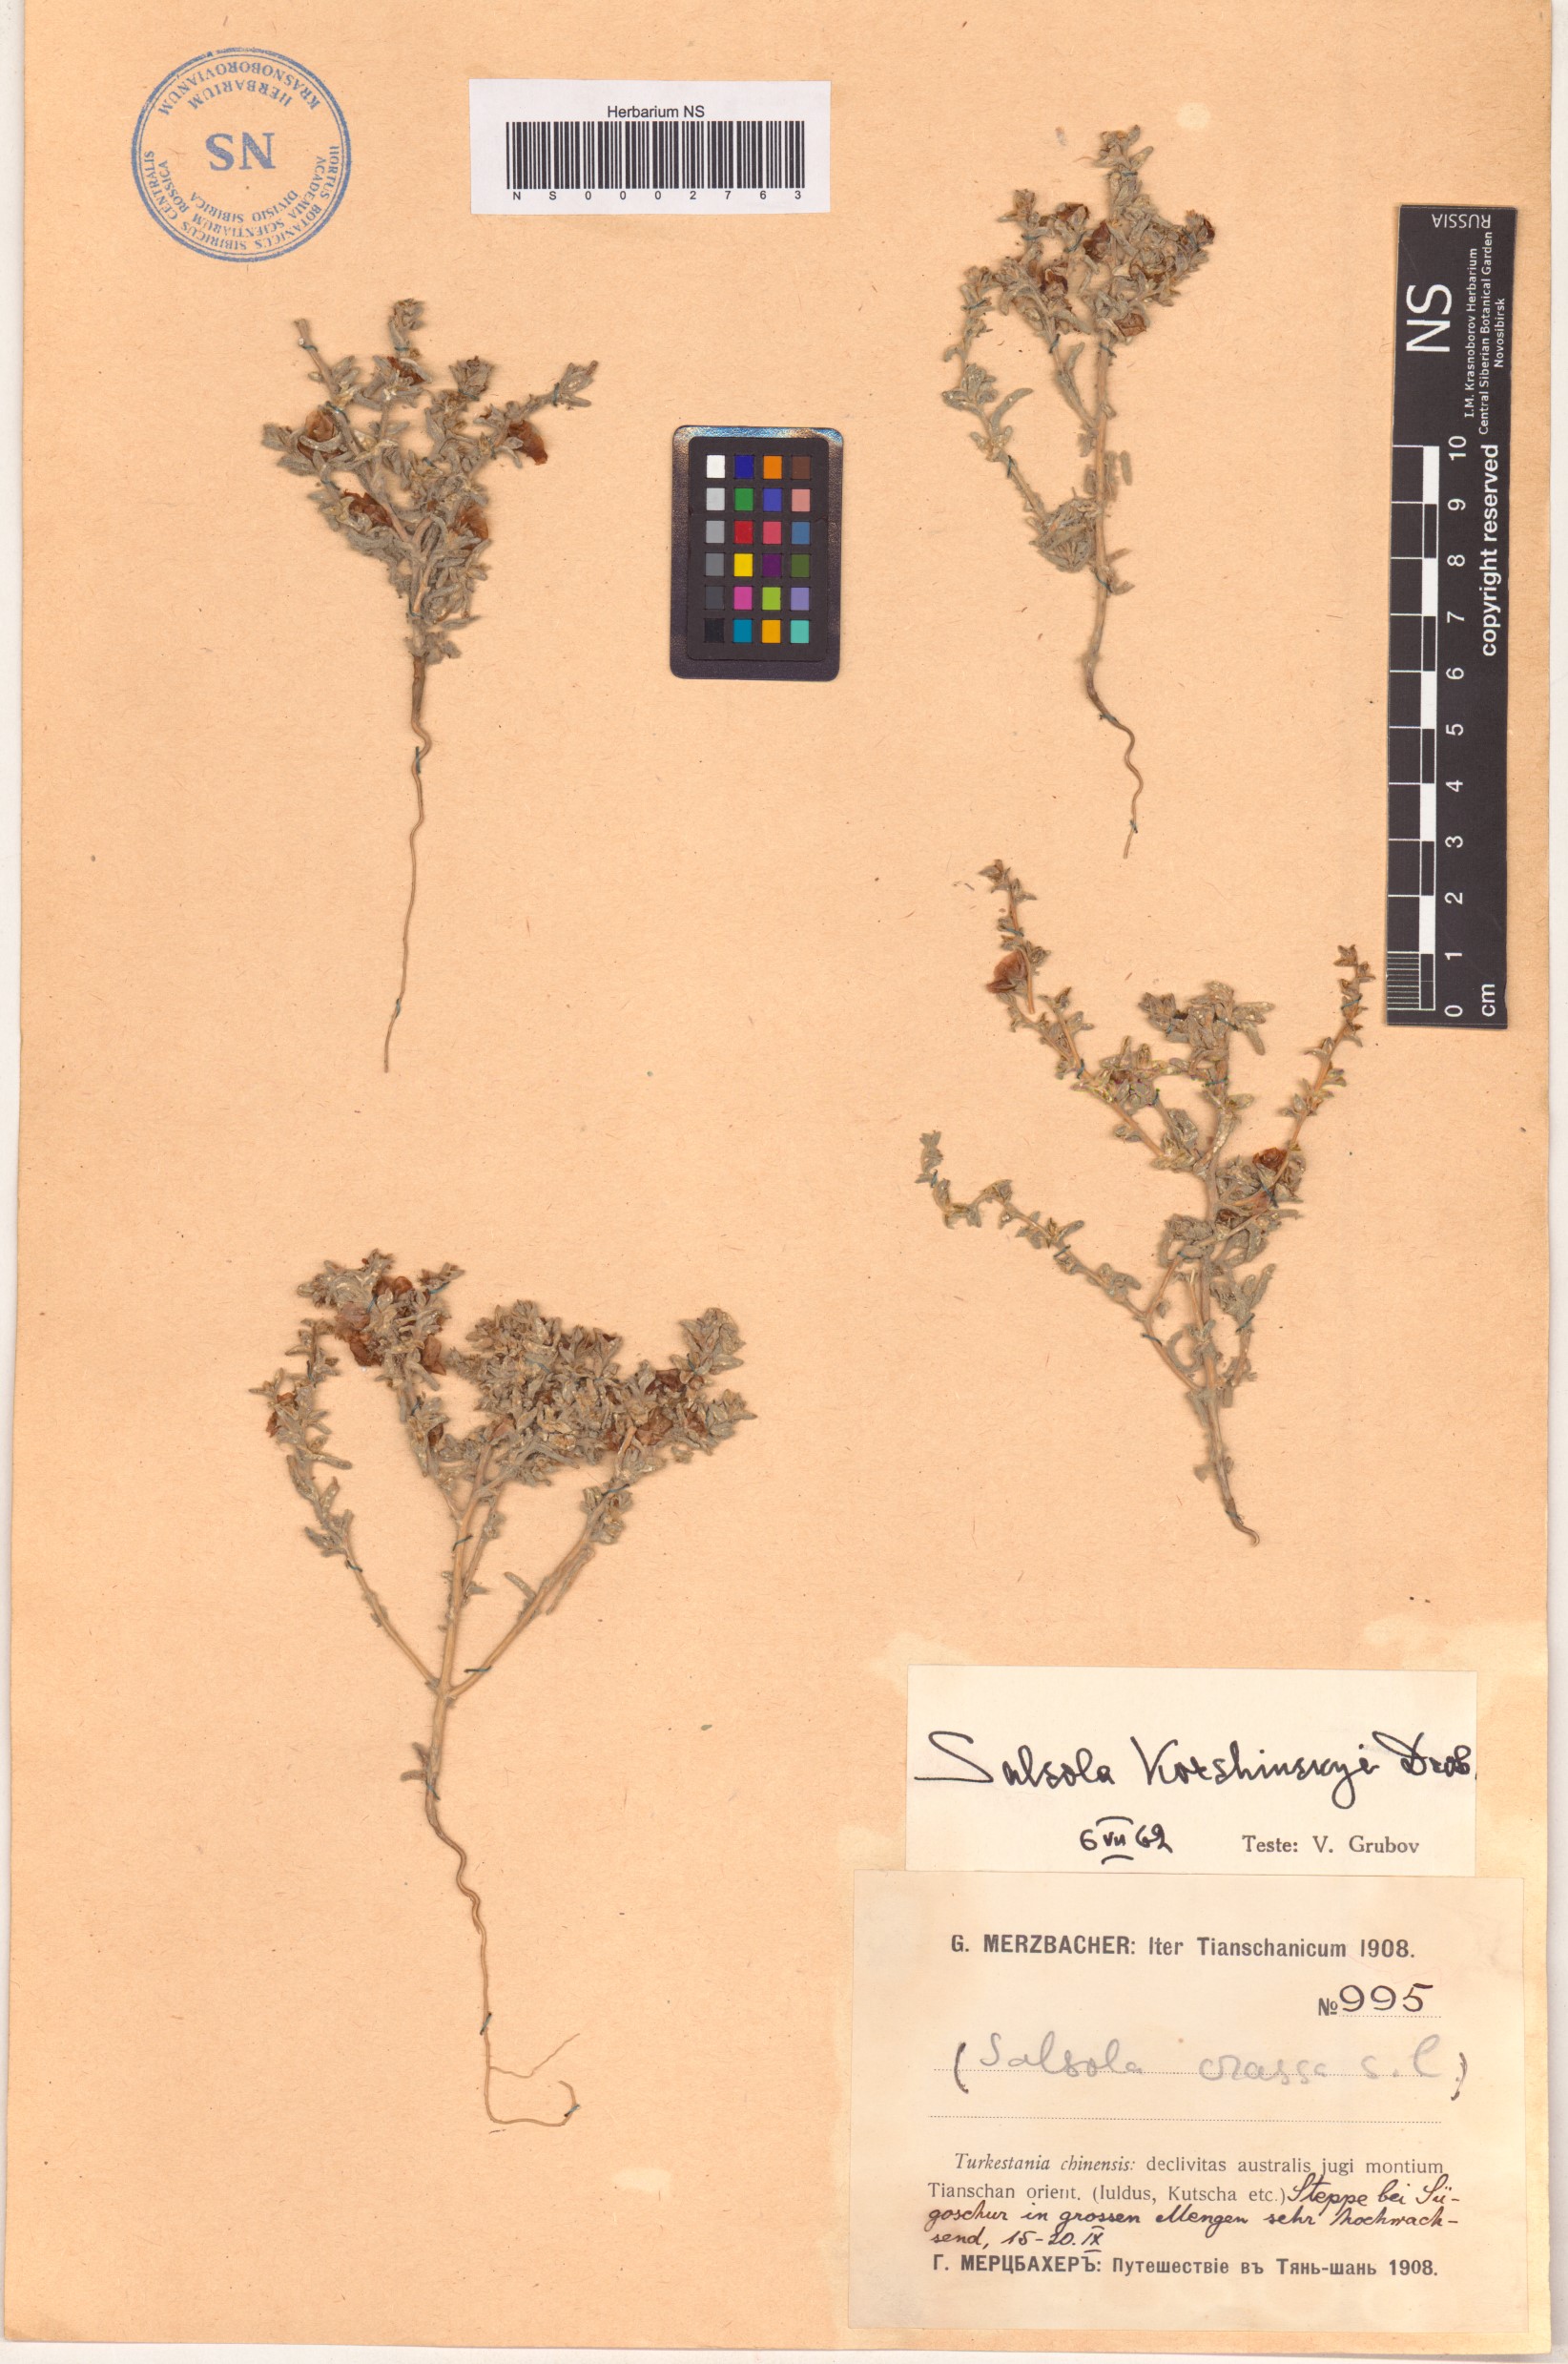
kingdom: Plantae
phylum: Tracheophyta
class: Magnoliopsida
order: Caryophyllales
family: Amaranthaceae
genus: Climacoptera
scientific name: Climacoptera korshinskyi
